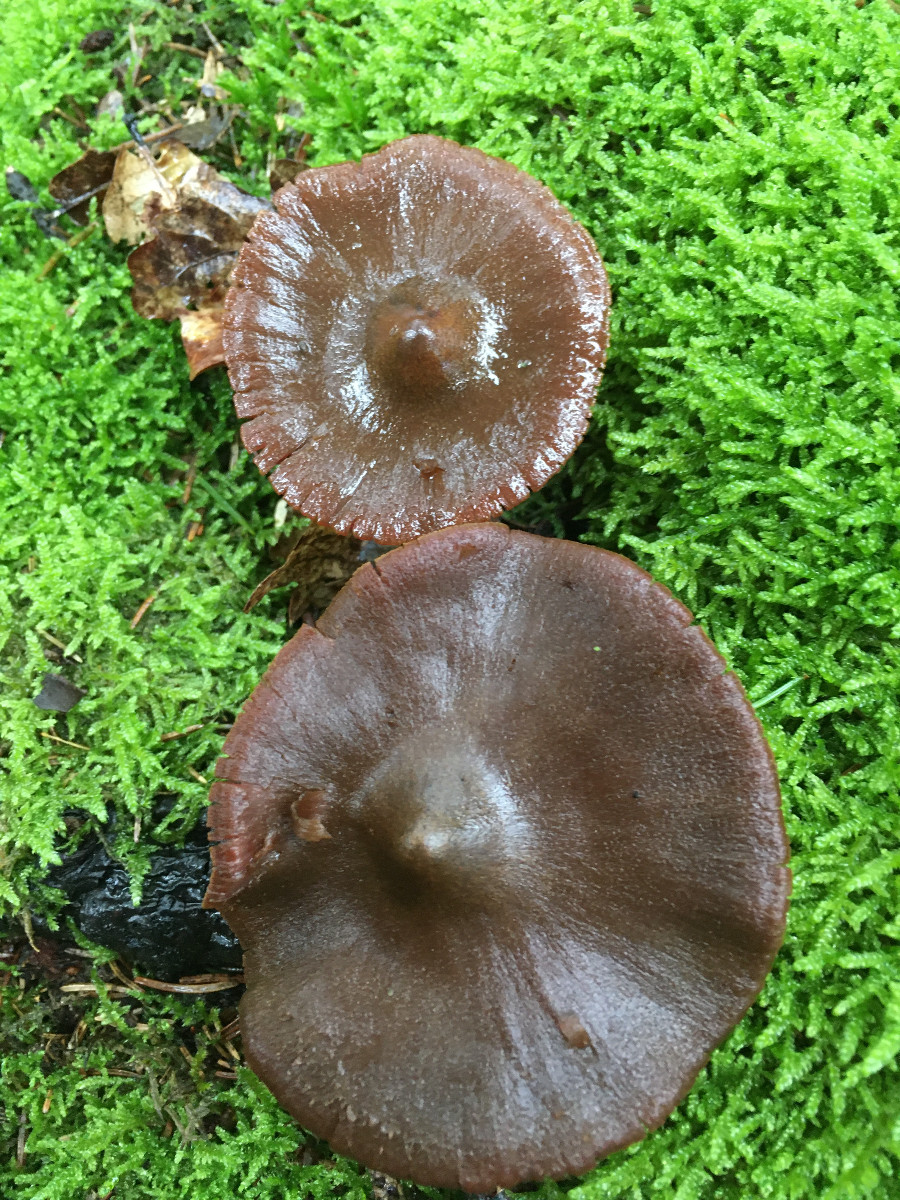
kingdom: Fungi
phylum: Basidiomycota
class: Agaricomycetes
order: Agaricales
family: Cortinariaceae
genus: Cortinarius
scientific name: Cortinarius
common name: cinnoberbladet slørhat
